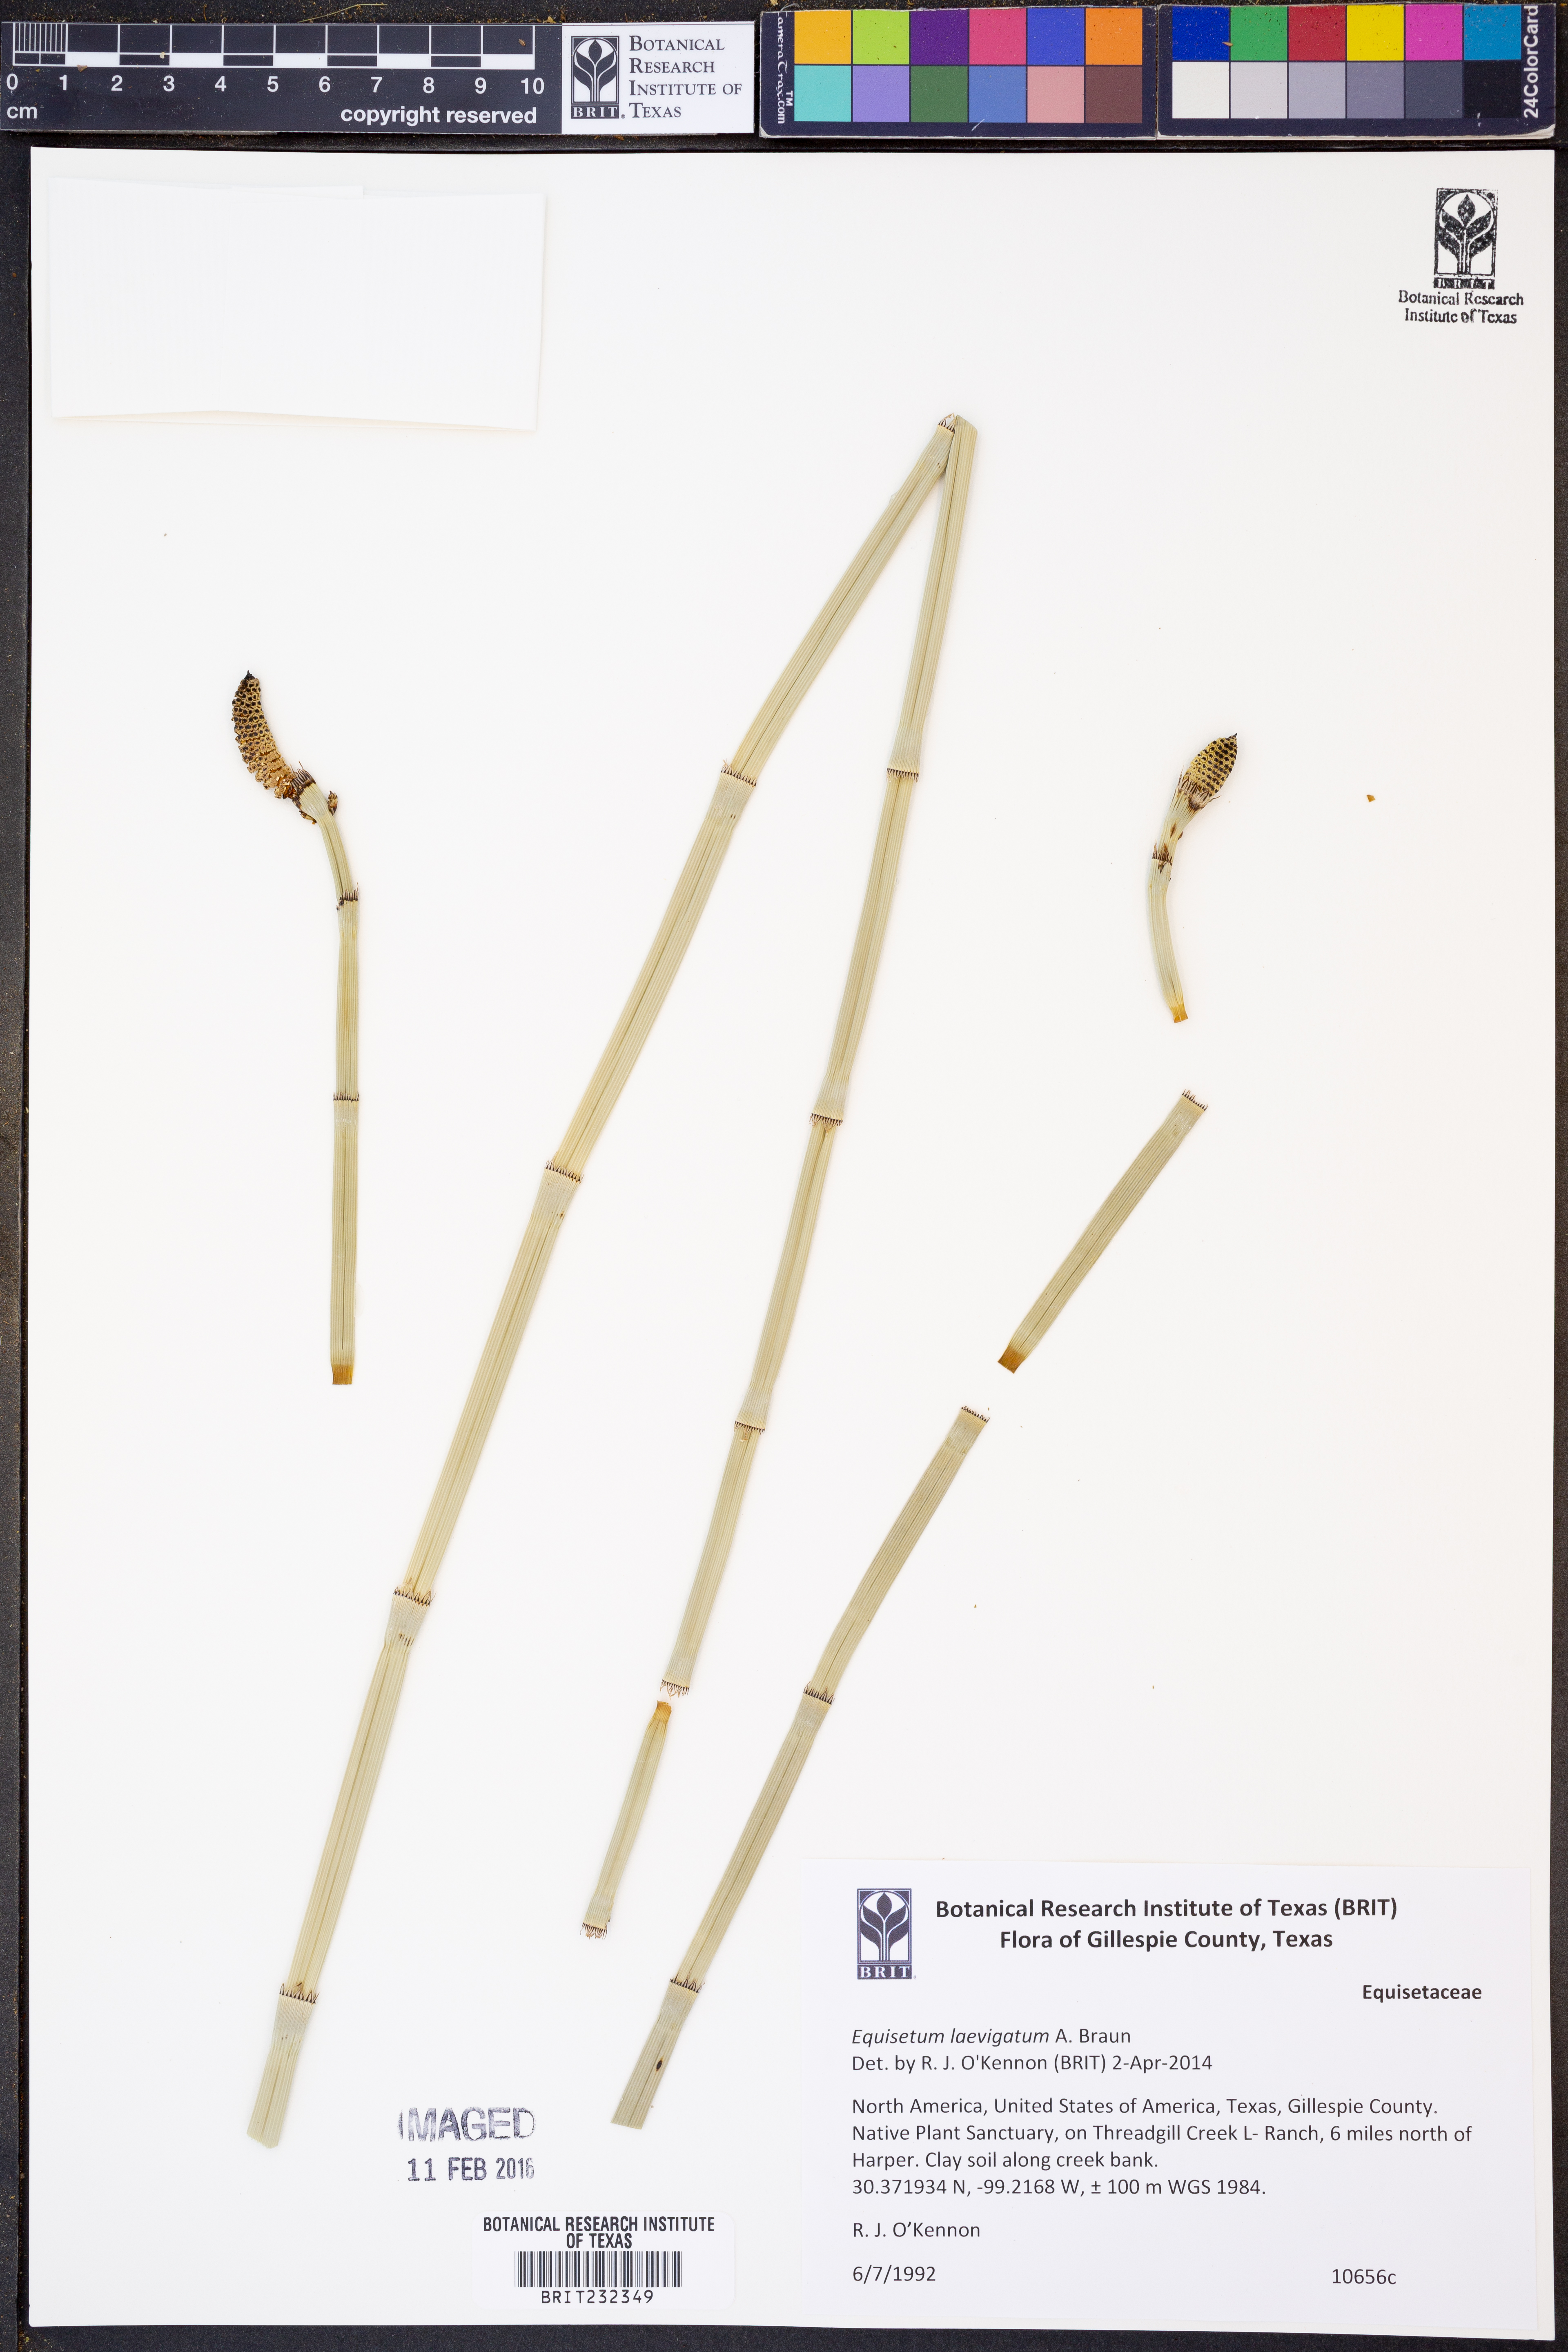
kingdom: Plantae
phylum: Tracheophyta
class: Polypodiopsida
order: Equisetales
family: Equisetaceae
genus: Equisetum
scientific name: Equisetum laevigatum
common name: Smooth scouring-rush
